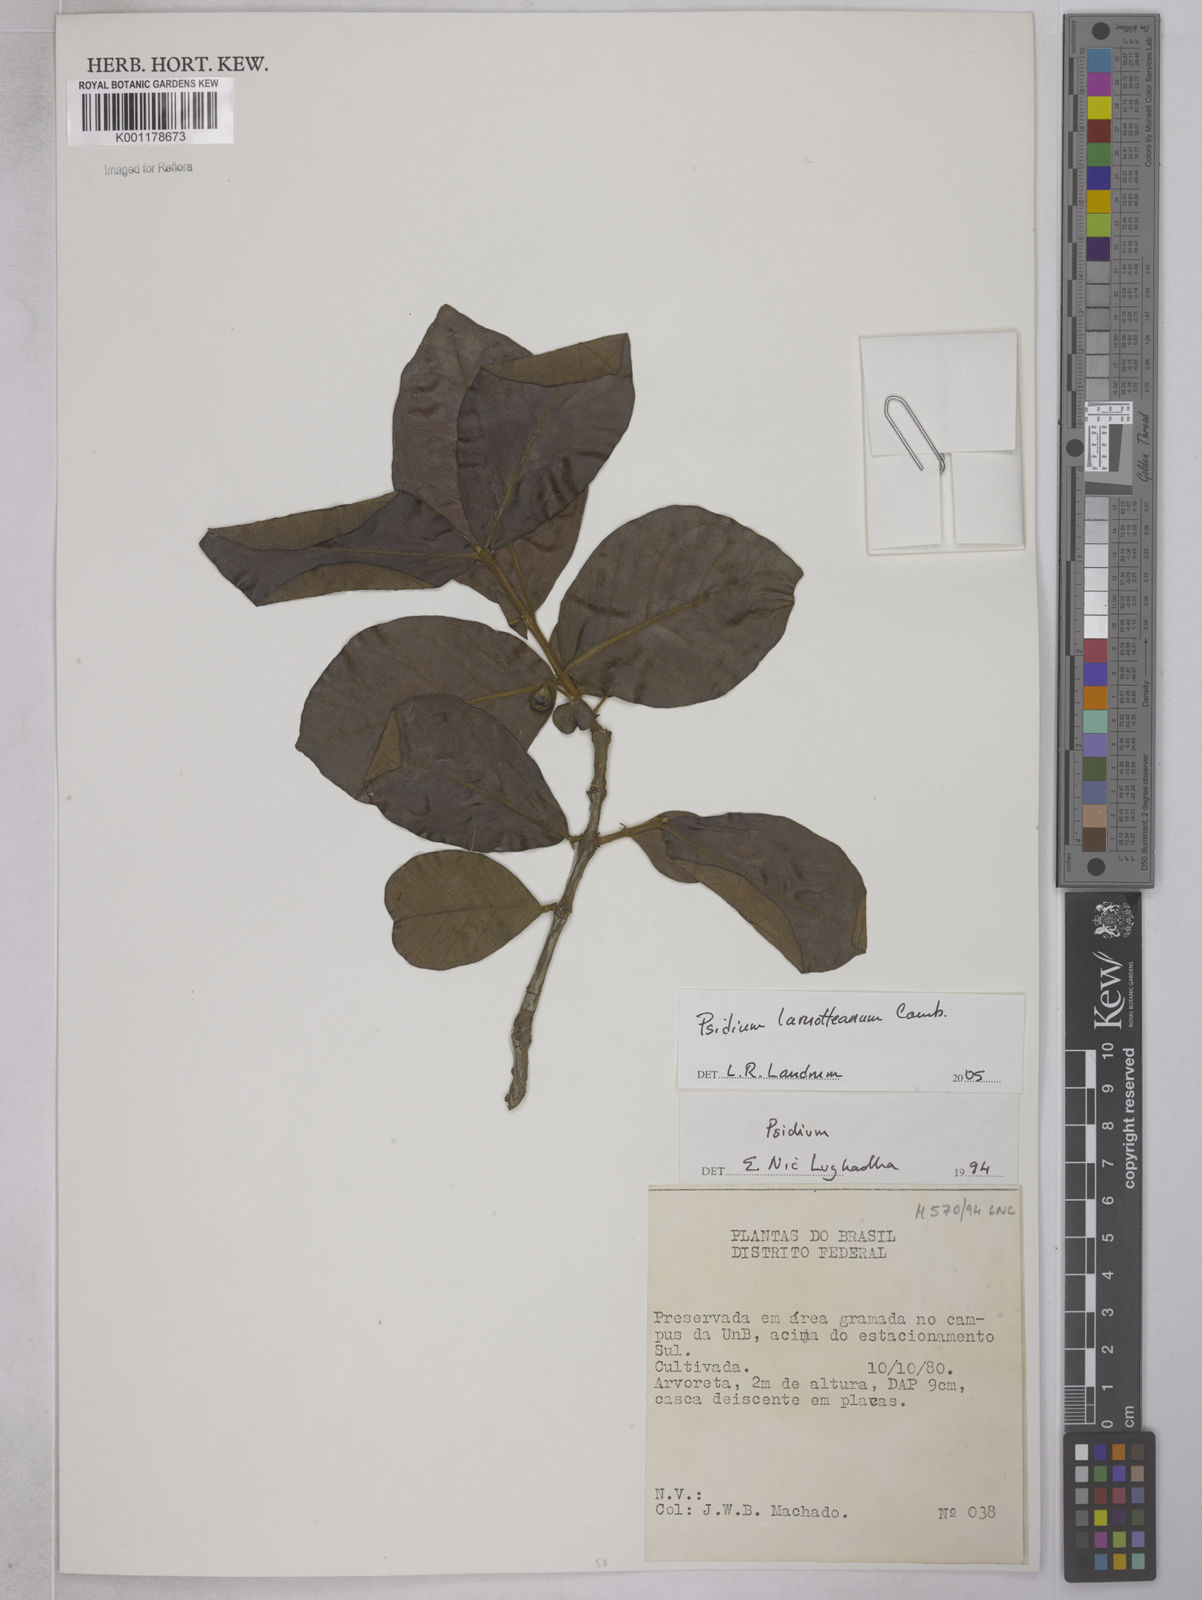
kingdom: Plantae
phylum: Tracheophyta
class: Magnoliopsida
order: Myrtales
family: Myrtaceae
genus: Psidium
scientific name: Psidium larueotteanum
